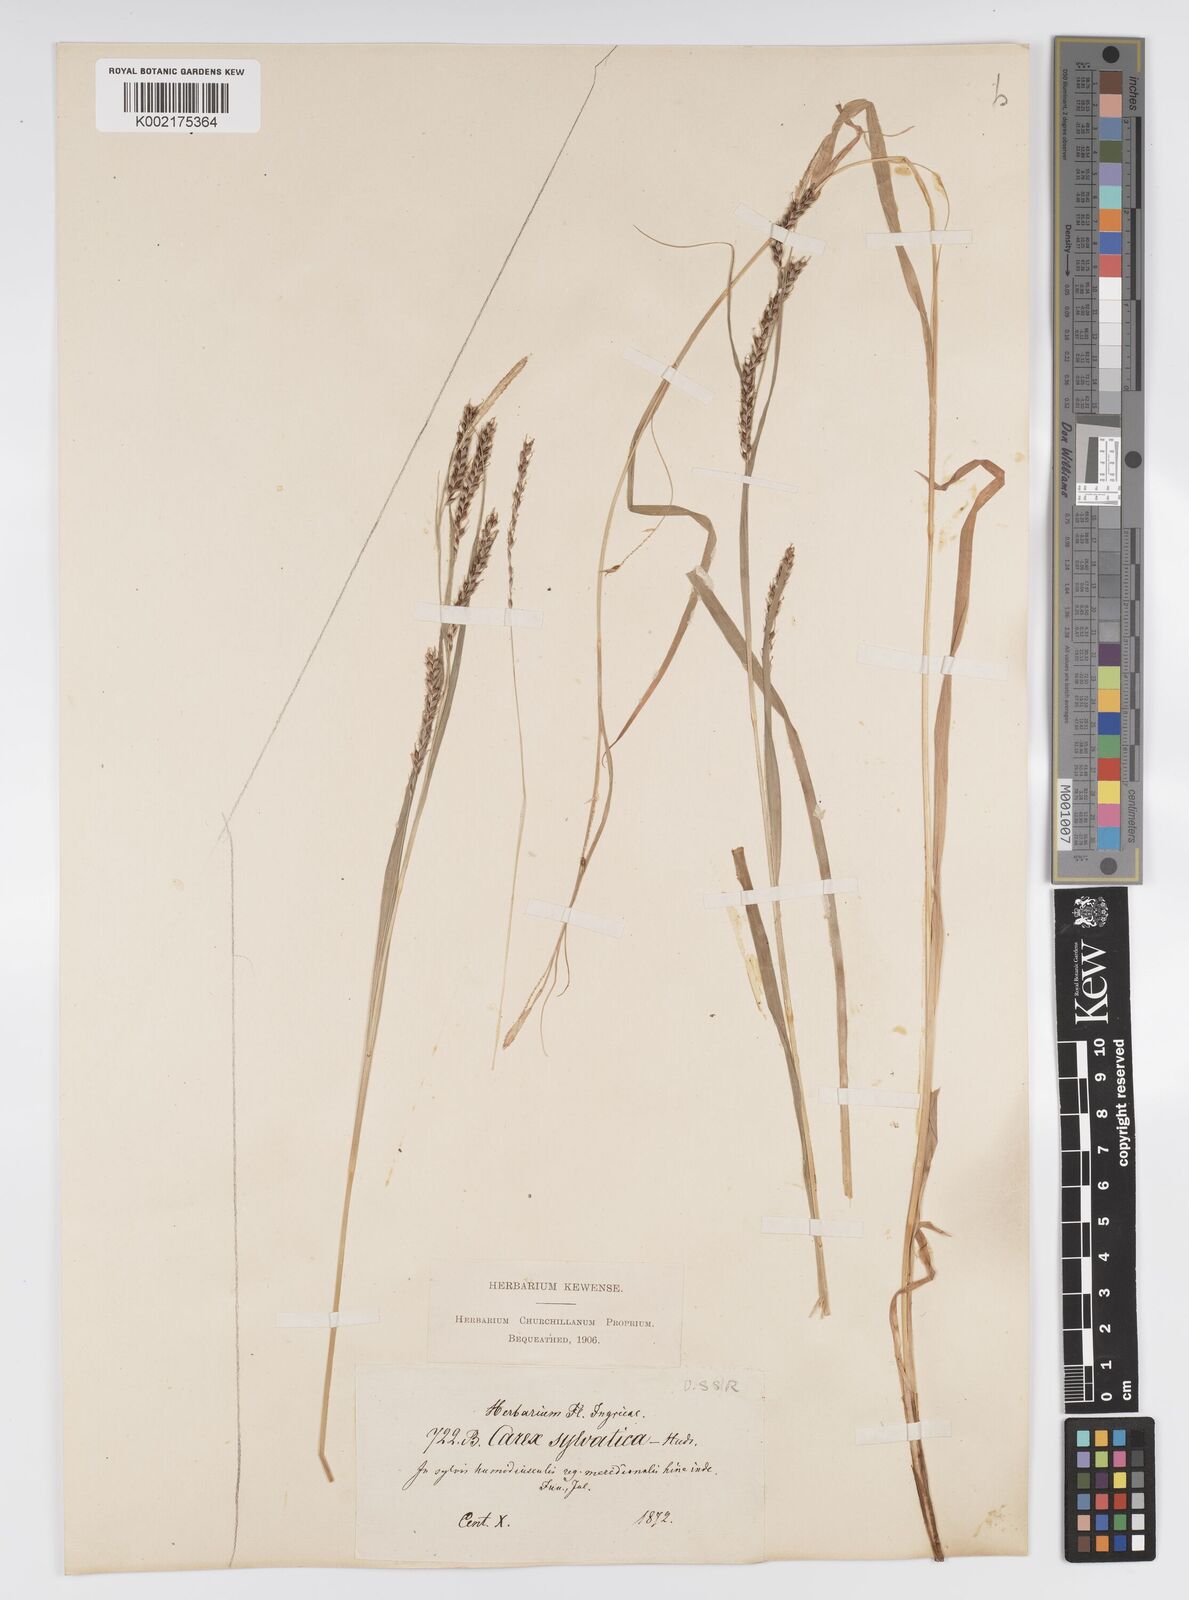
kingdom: Plantae
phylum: Tracheophyta
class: Liliopsida
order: Poales
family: Cyperaceae
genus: Carex
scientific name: Carex sylvatica
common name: Wood-sedge
